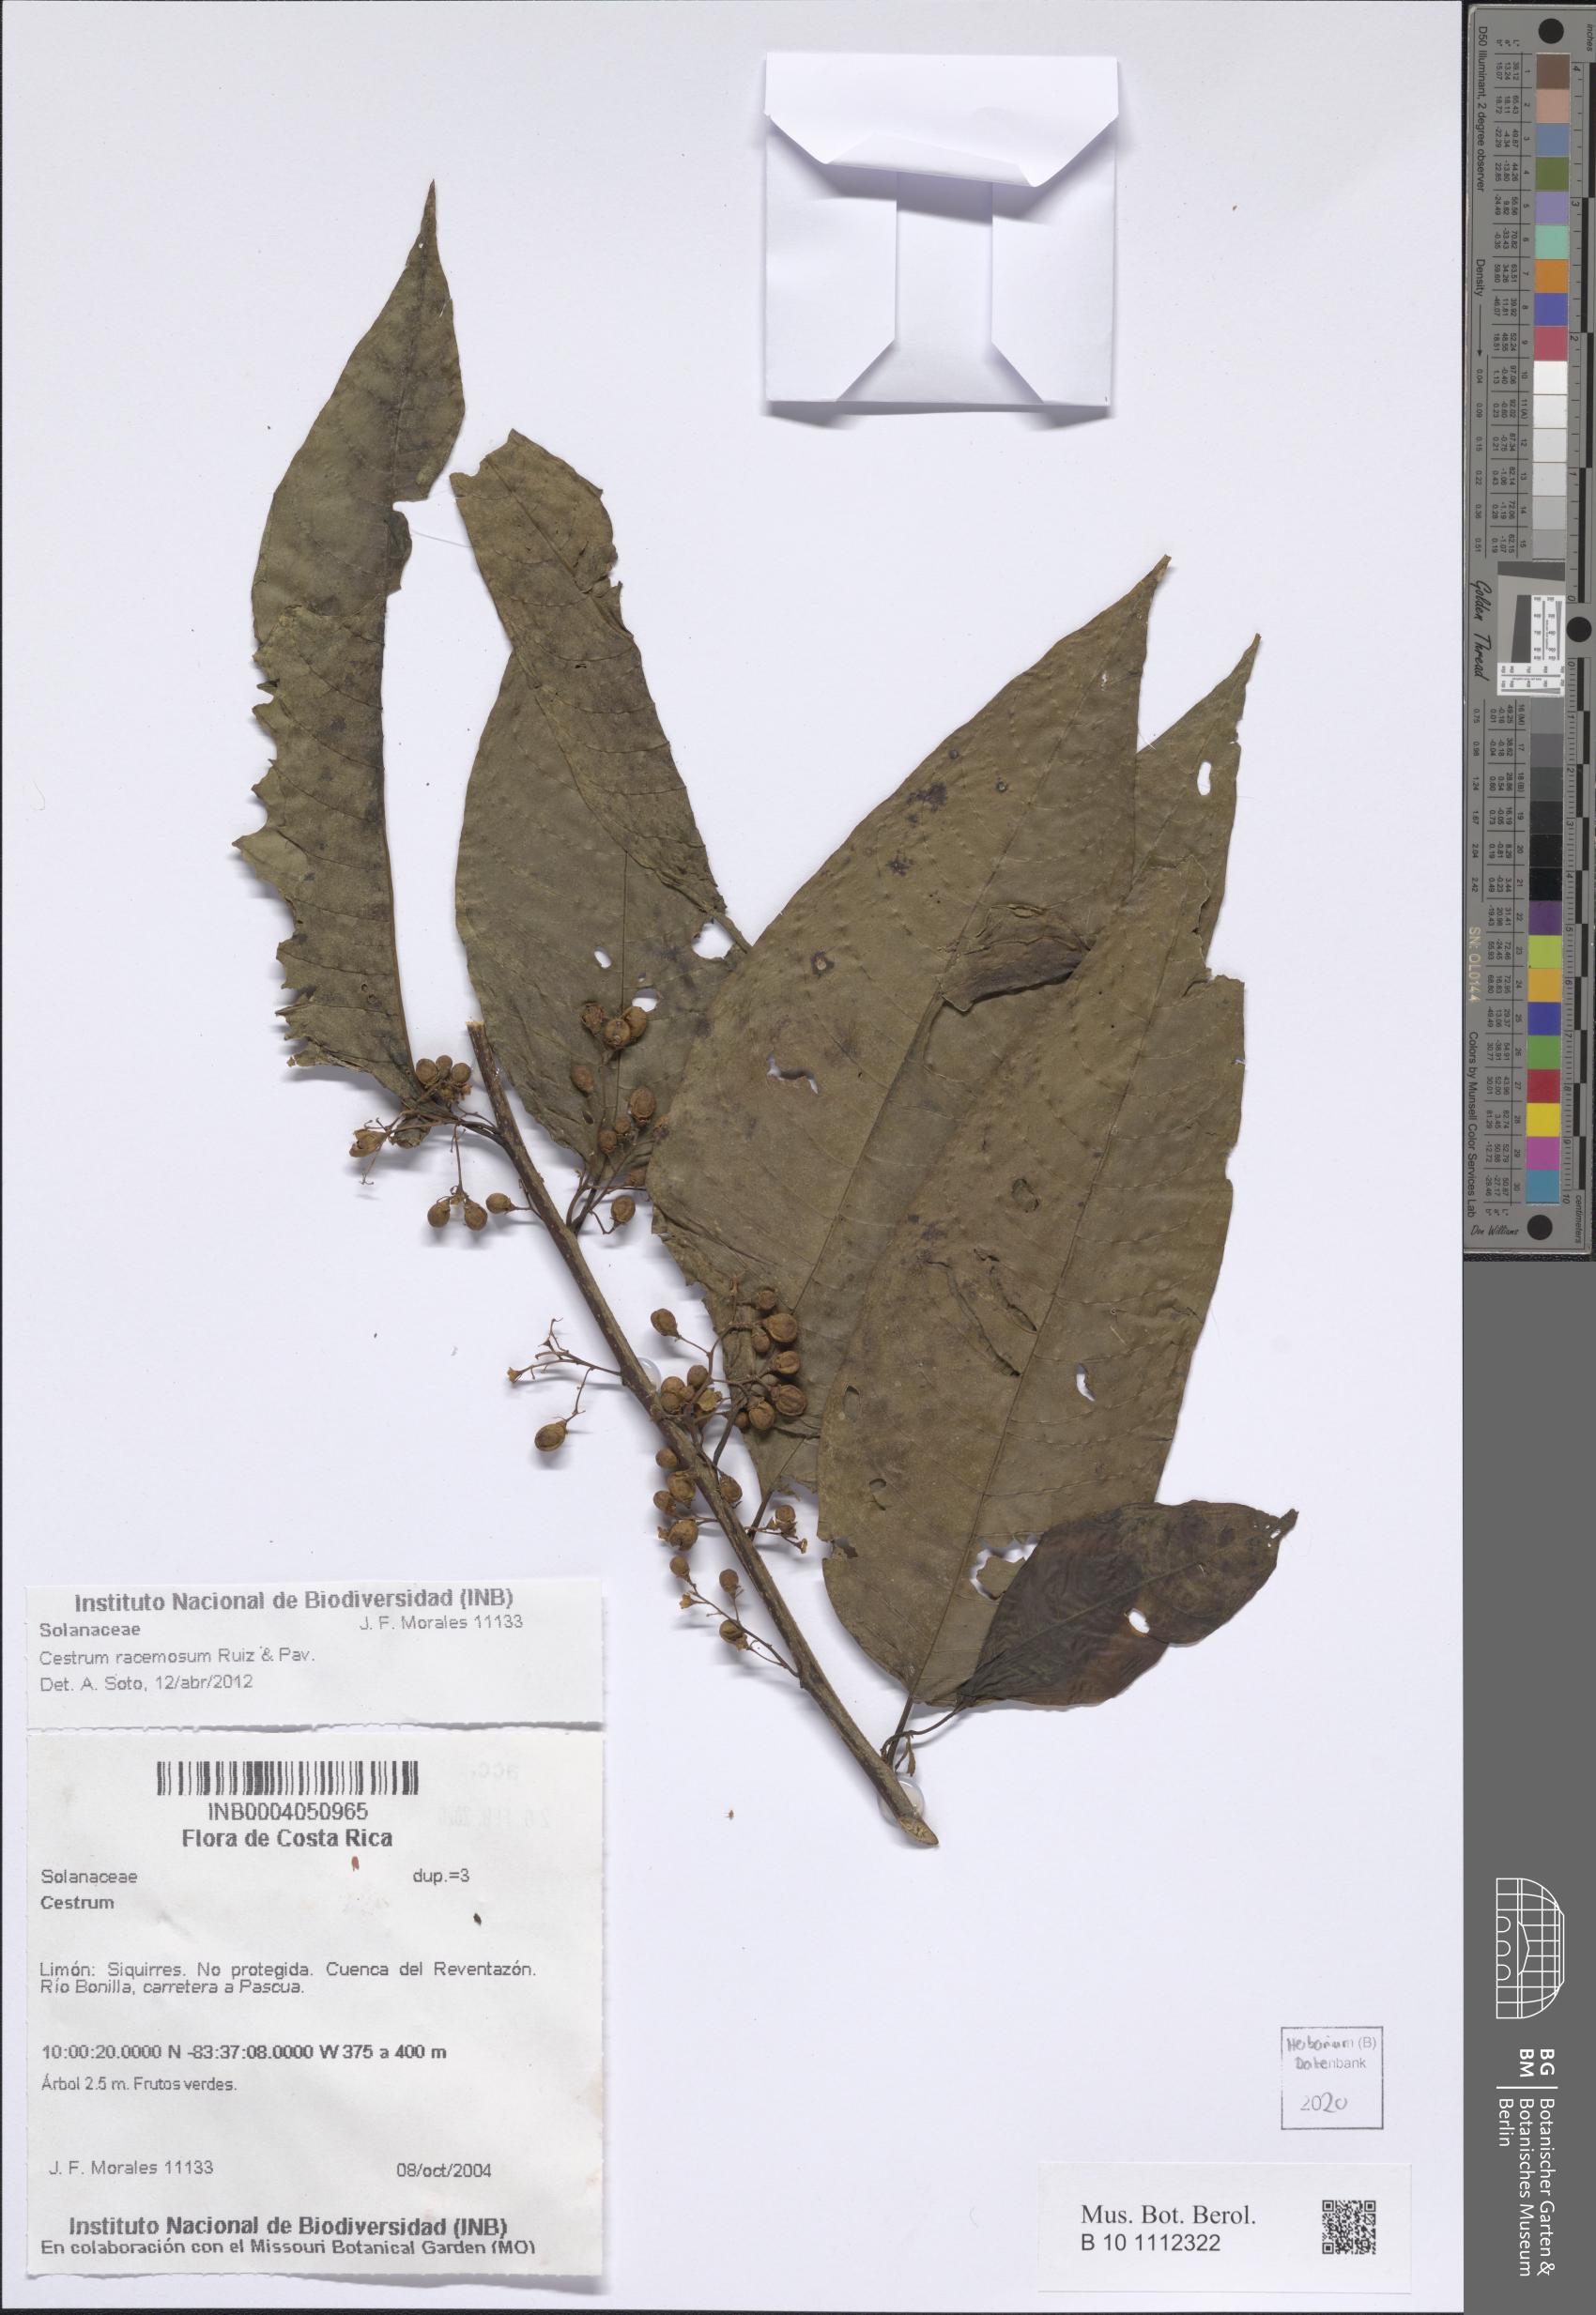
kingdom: Plantae
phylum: Tracheophyta
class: Magnoliopsida
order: Solanales
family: Solanaceae
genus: Cestrum
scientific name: Cestrum racemosum
